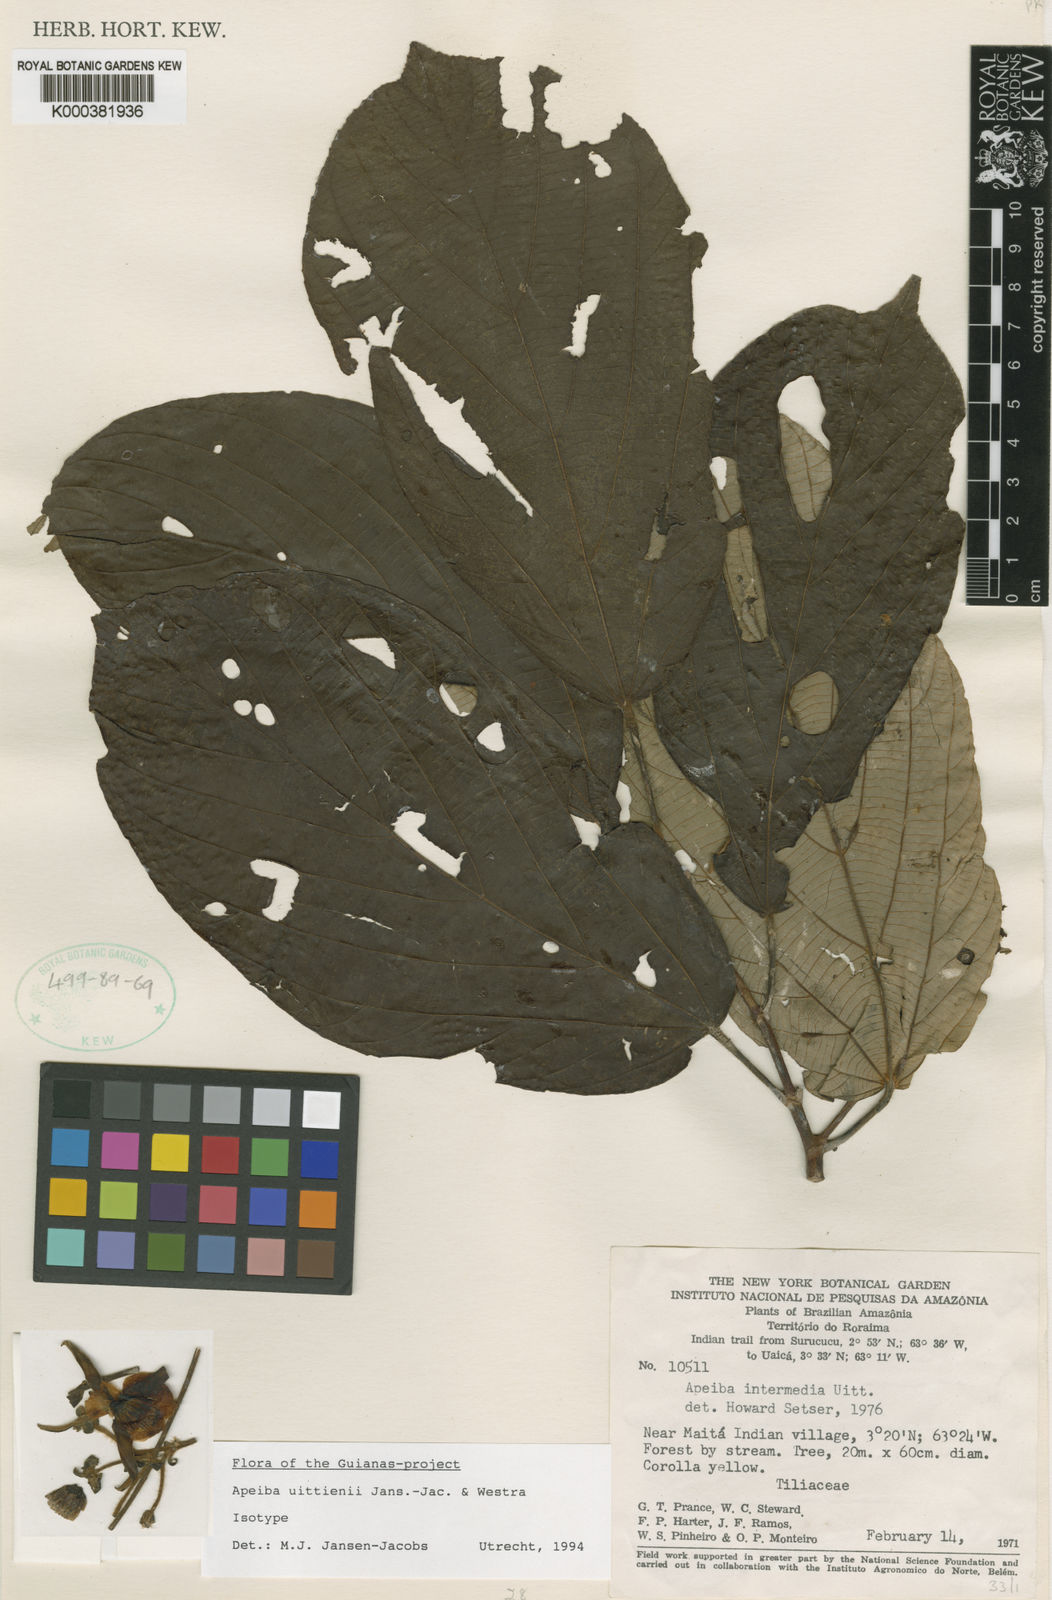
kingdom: Plantae
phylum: Tracheophyta
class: Magnoliopsida
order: Malvales
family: Malvaceae
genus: Apeiba
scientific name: Apeiba uittienii
